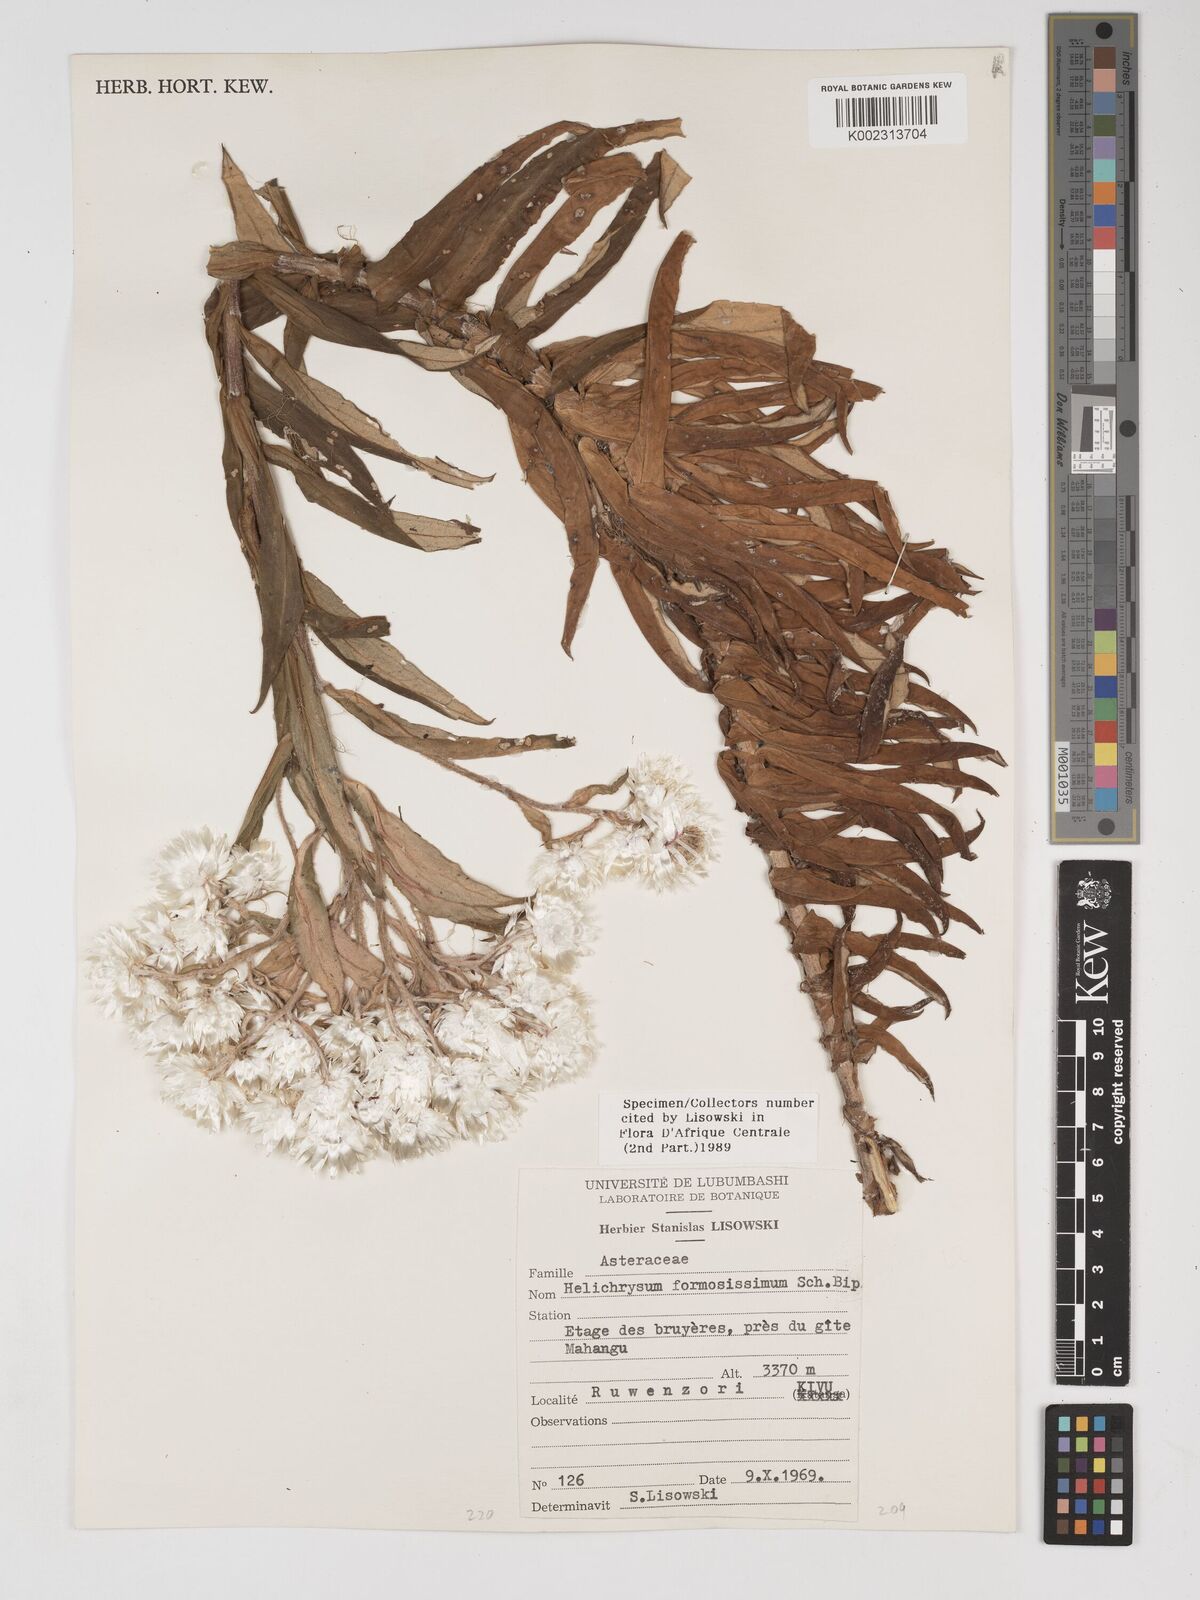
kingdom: Plantae
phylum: Tracheophyta
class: Magnoliopsida
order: Asterales
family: Asteraceae
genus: Helichrysum
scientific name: Helichrysum formosissimum
